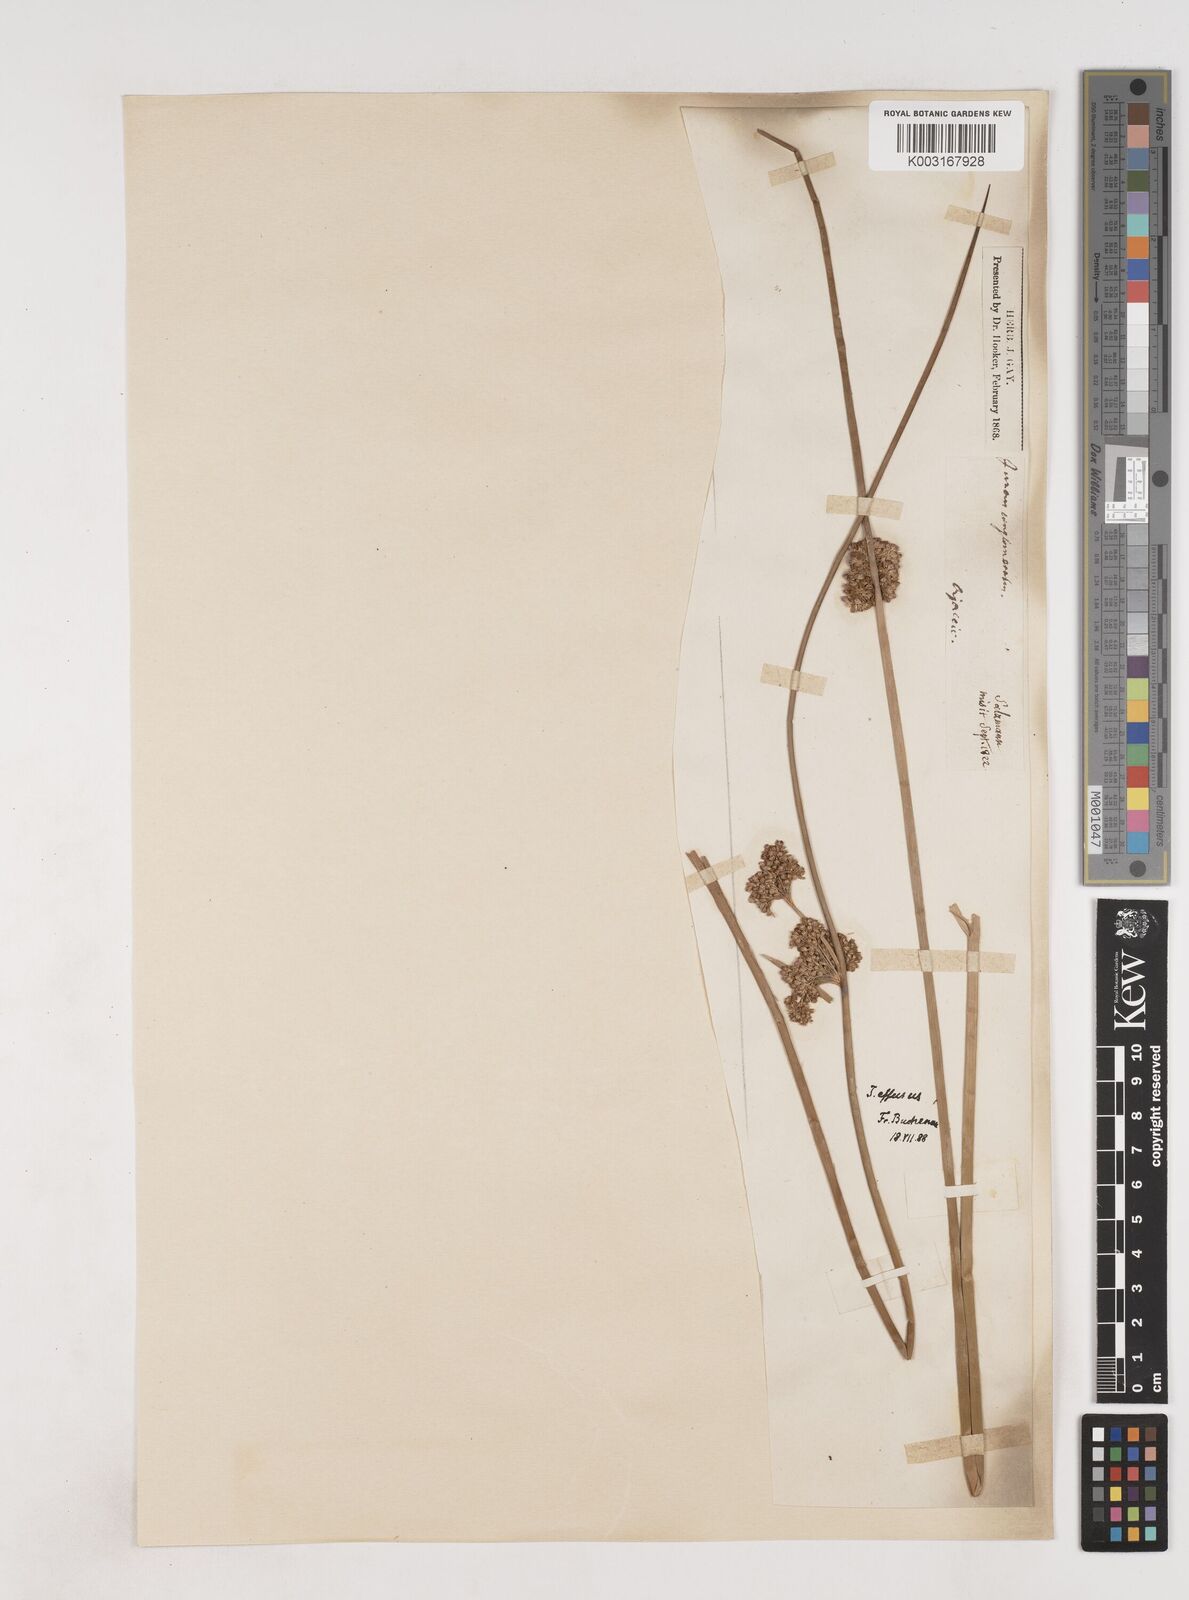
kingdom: Plantae
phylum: Tracheophyta
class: Liliopsida
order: Poales
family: Juncaceae
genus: Juncus
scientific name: Juncus effusus
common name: Soft rush
